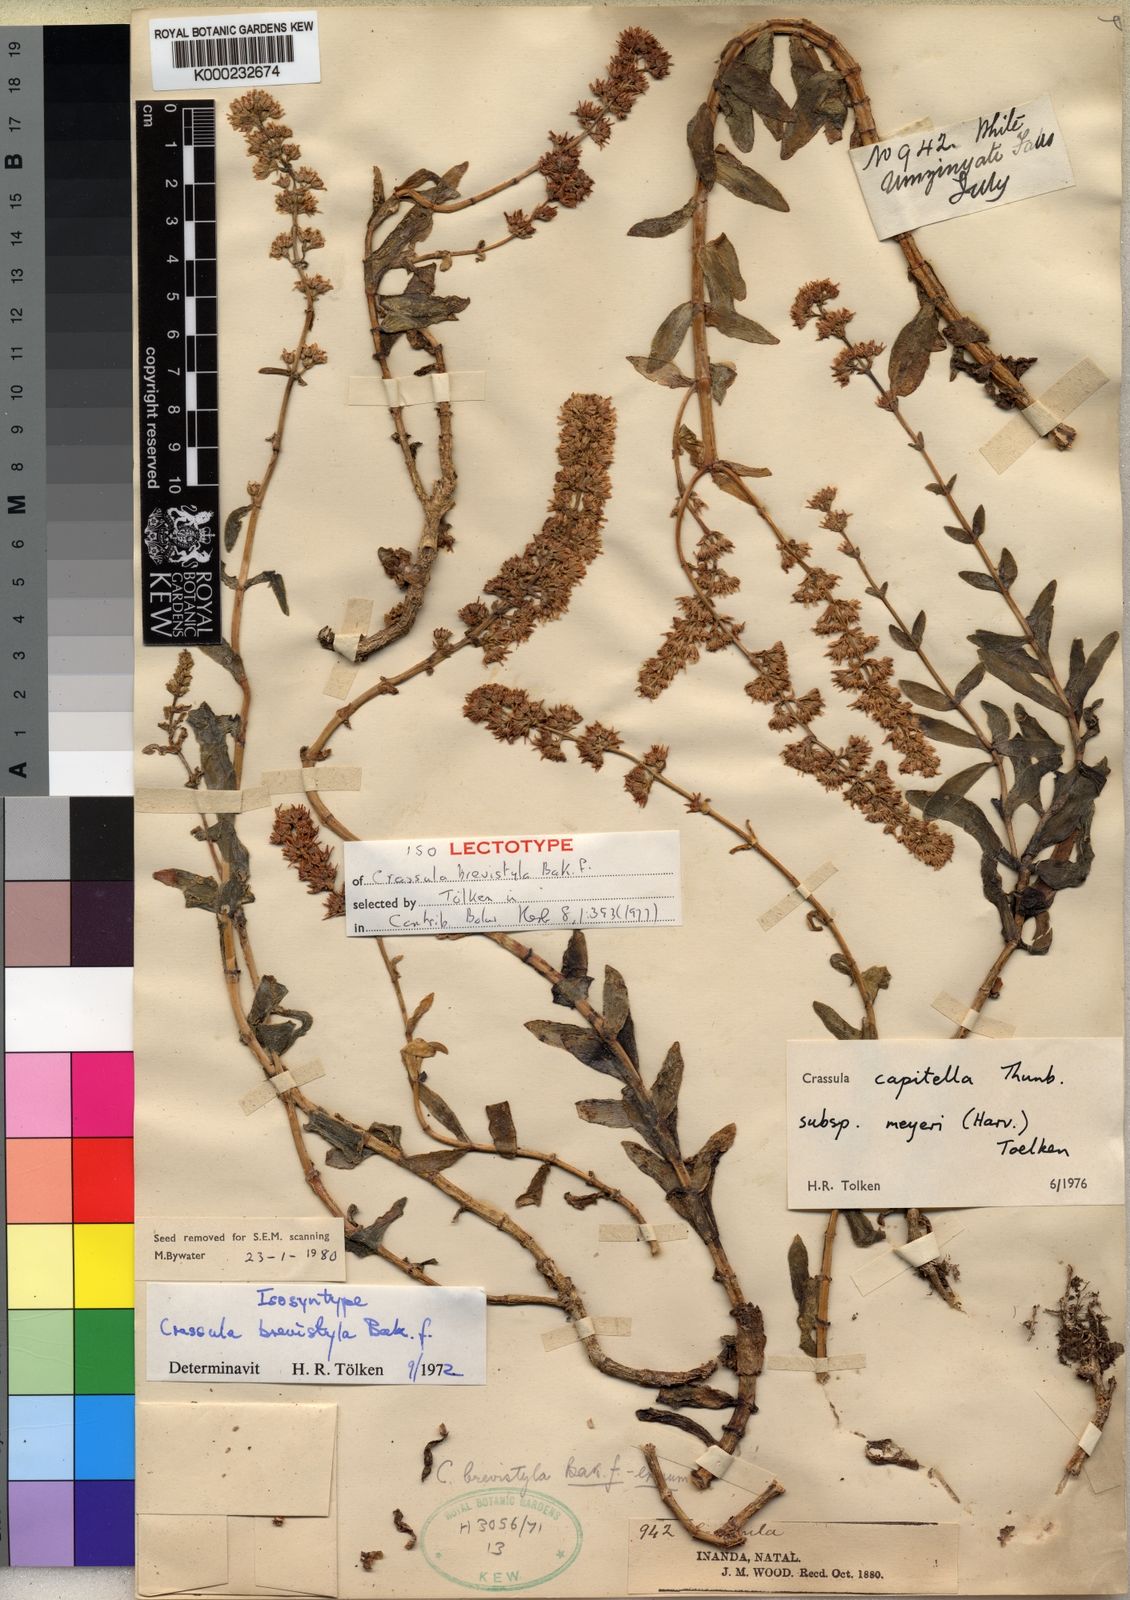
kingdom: Plantae
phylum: Tracheophyta
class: Magnoliopsida
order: Saxifragales
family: Crassulaceae
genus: Crassula
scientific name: Crassula capitella
